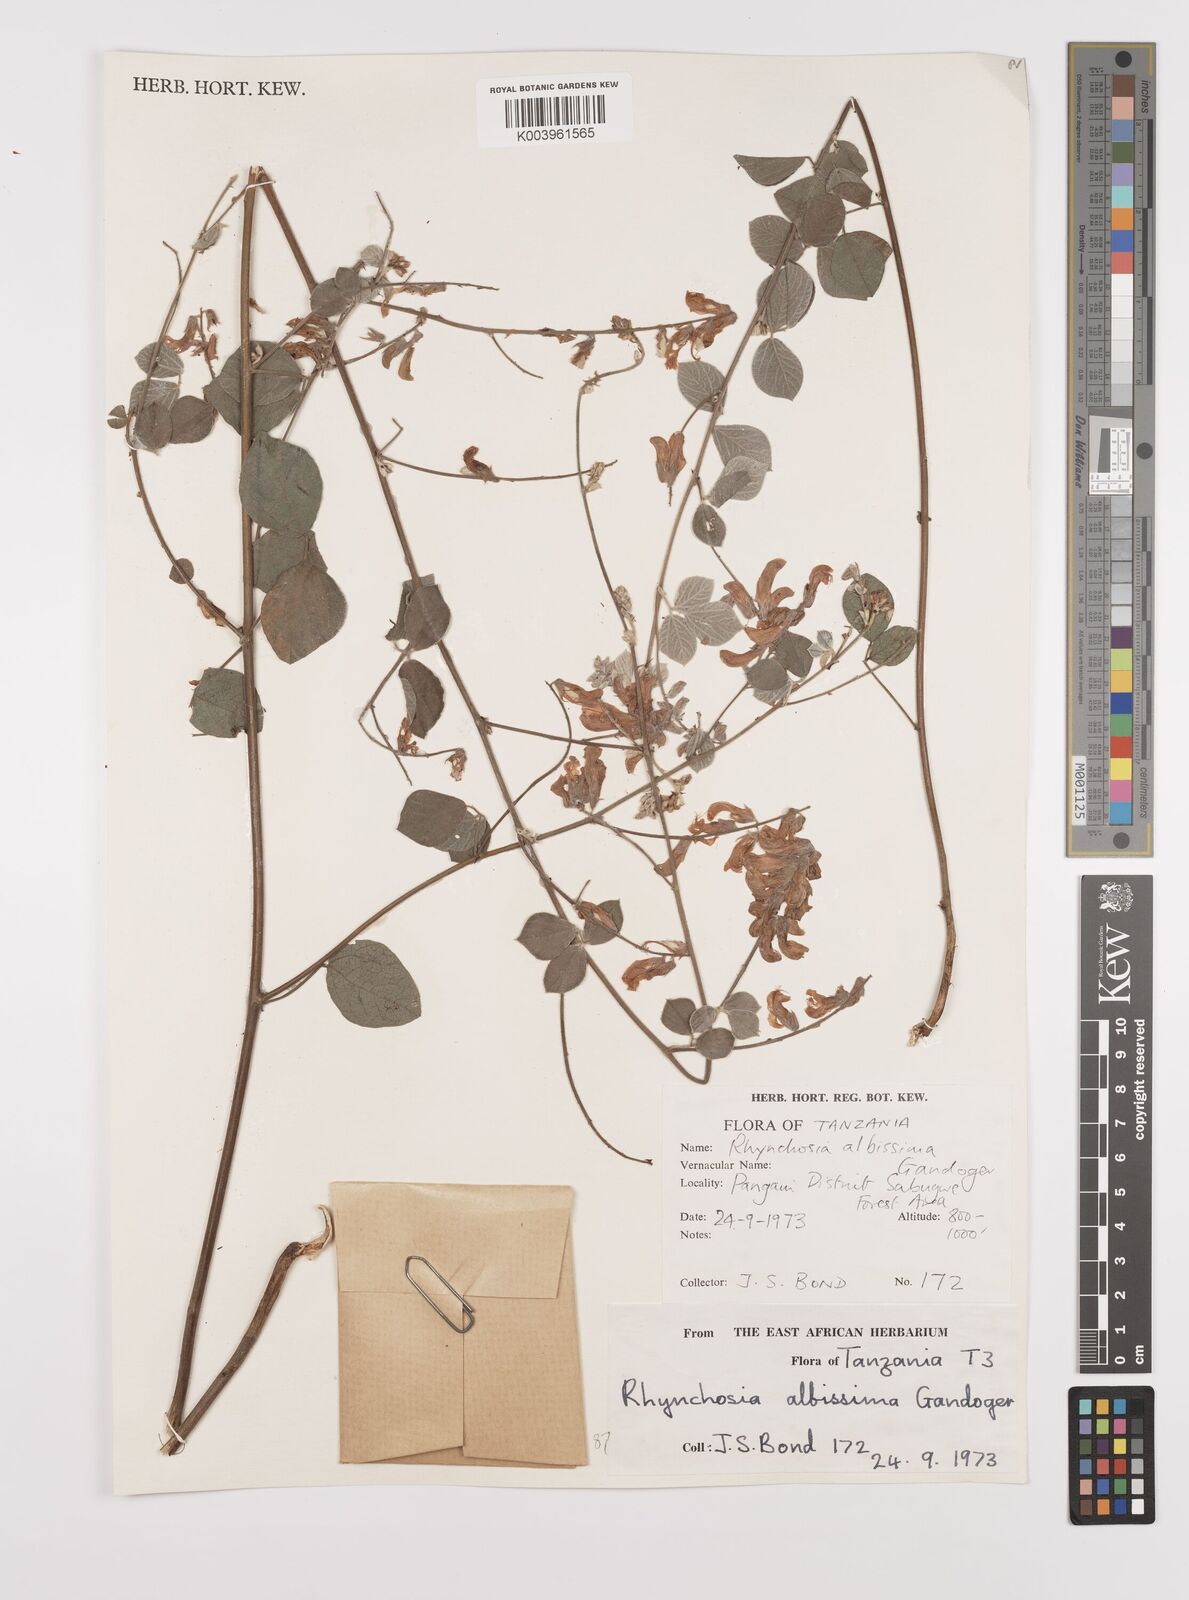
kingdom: Plantae
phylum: Tracheophyta
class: Magnoliopsida
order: Fabales
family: Fabaceae
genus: Rhynchosia
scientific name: Rhynchosia albissima
